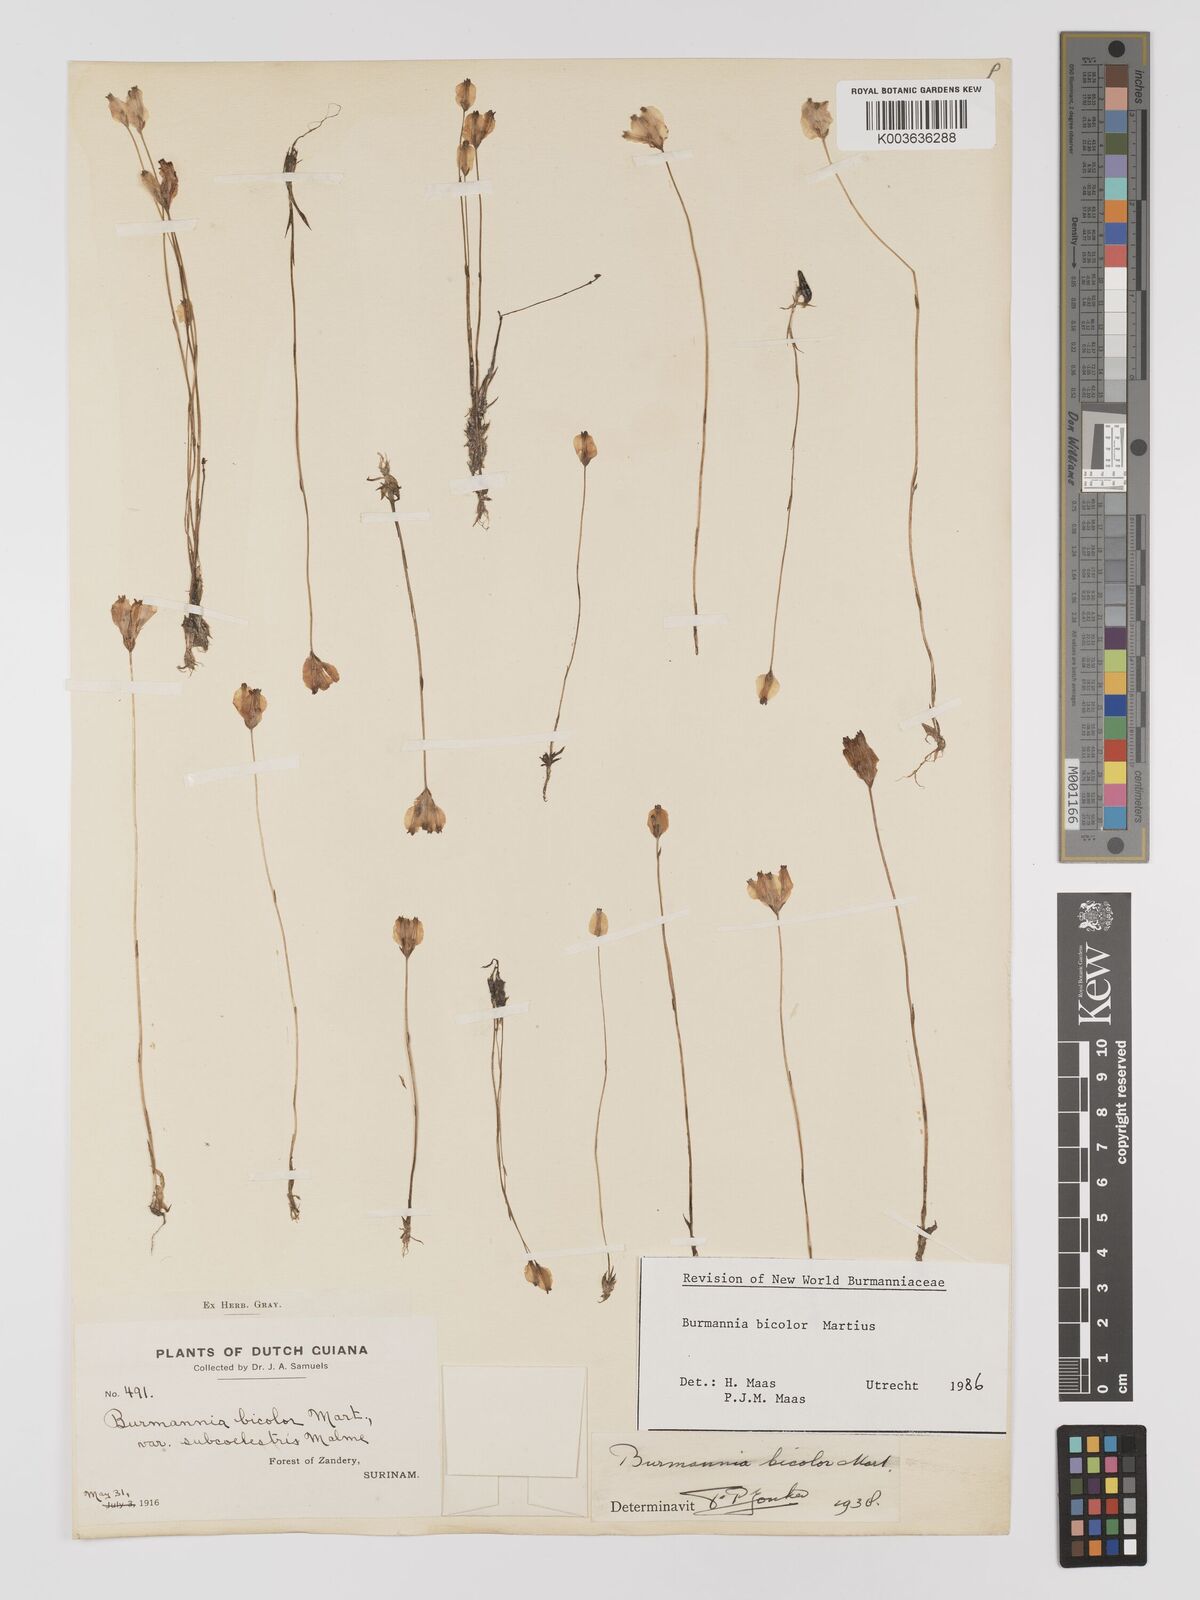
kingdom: Plantae
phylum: Tracheophyta
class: Liliopsida
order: Dioscoreales
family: Burmanniaceae
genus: Burmannia
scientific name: Burmannia bicolor
